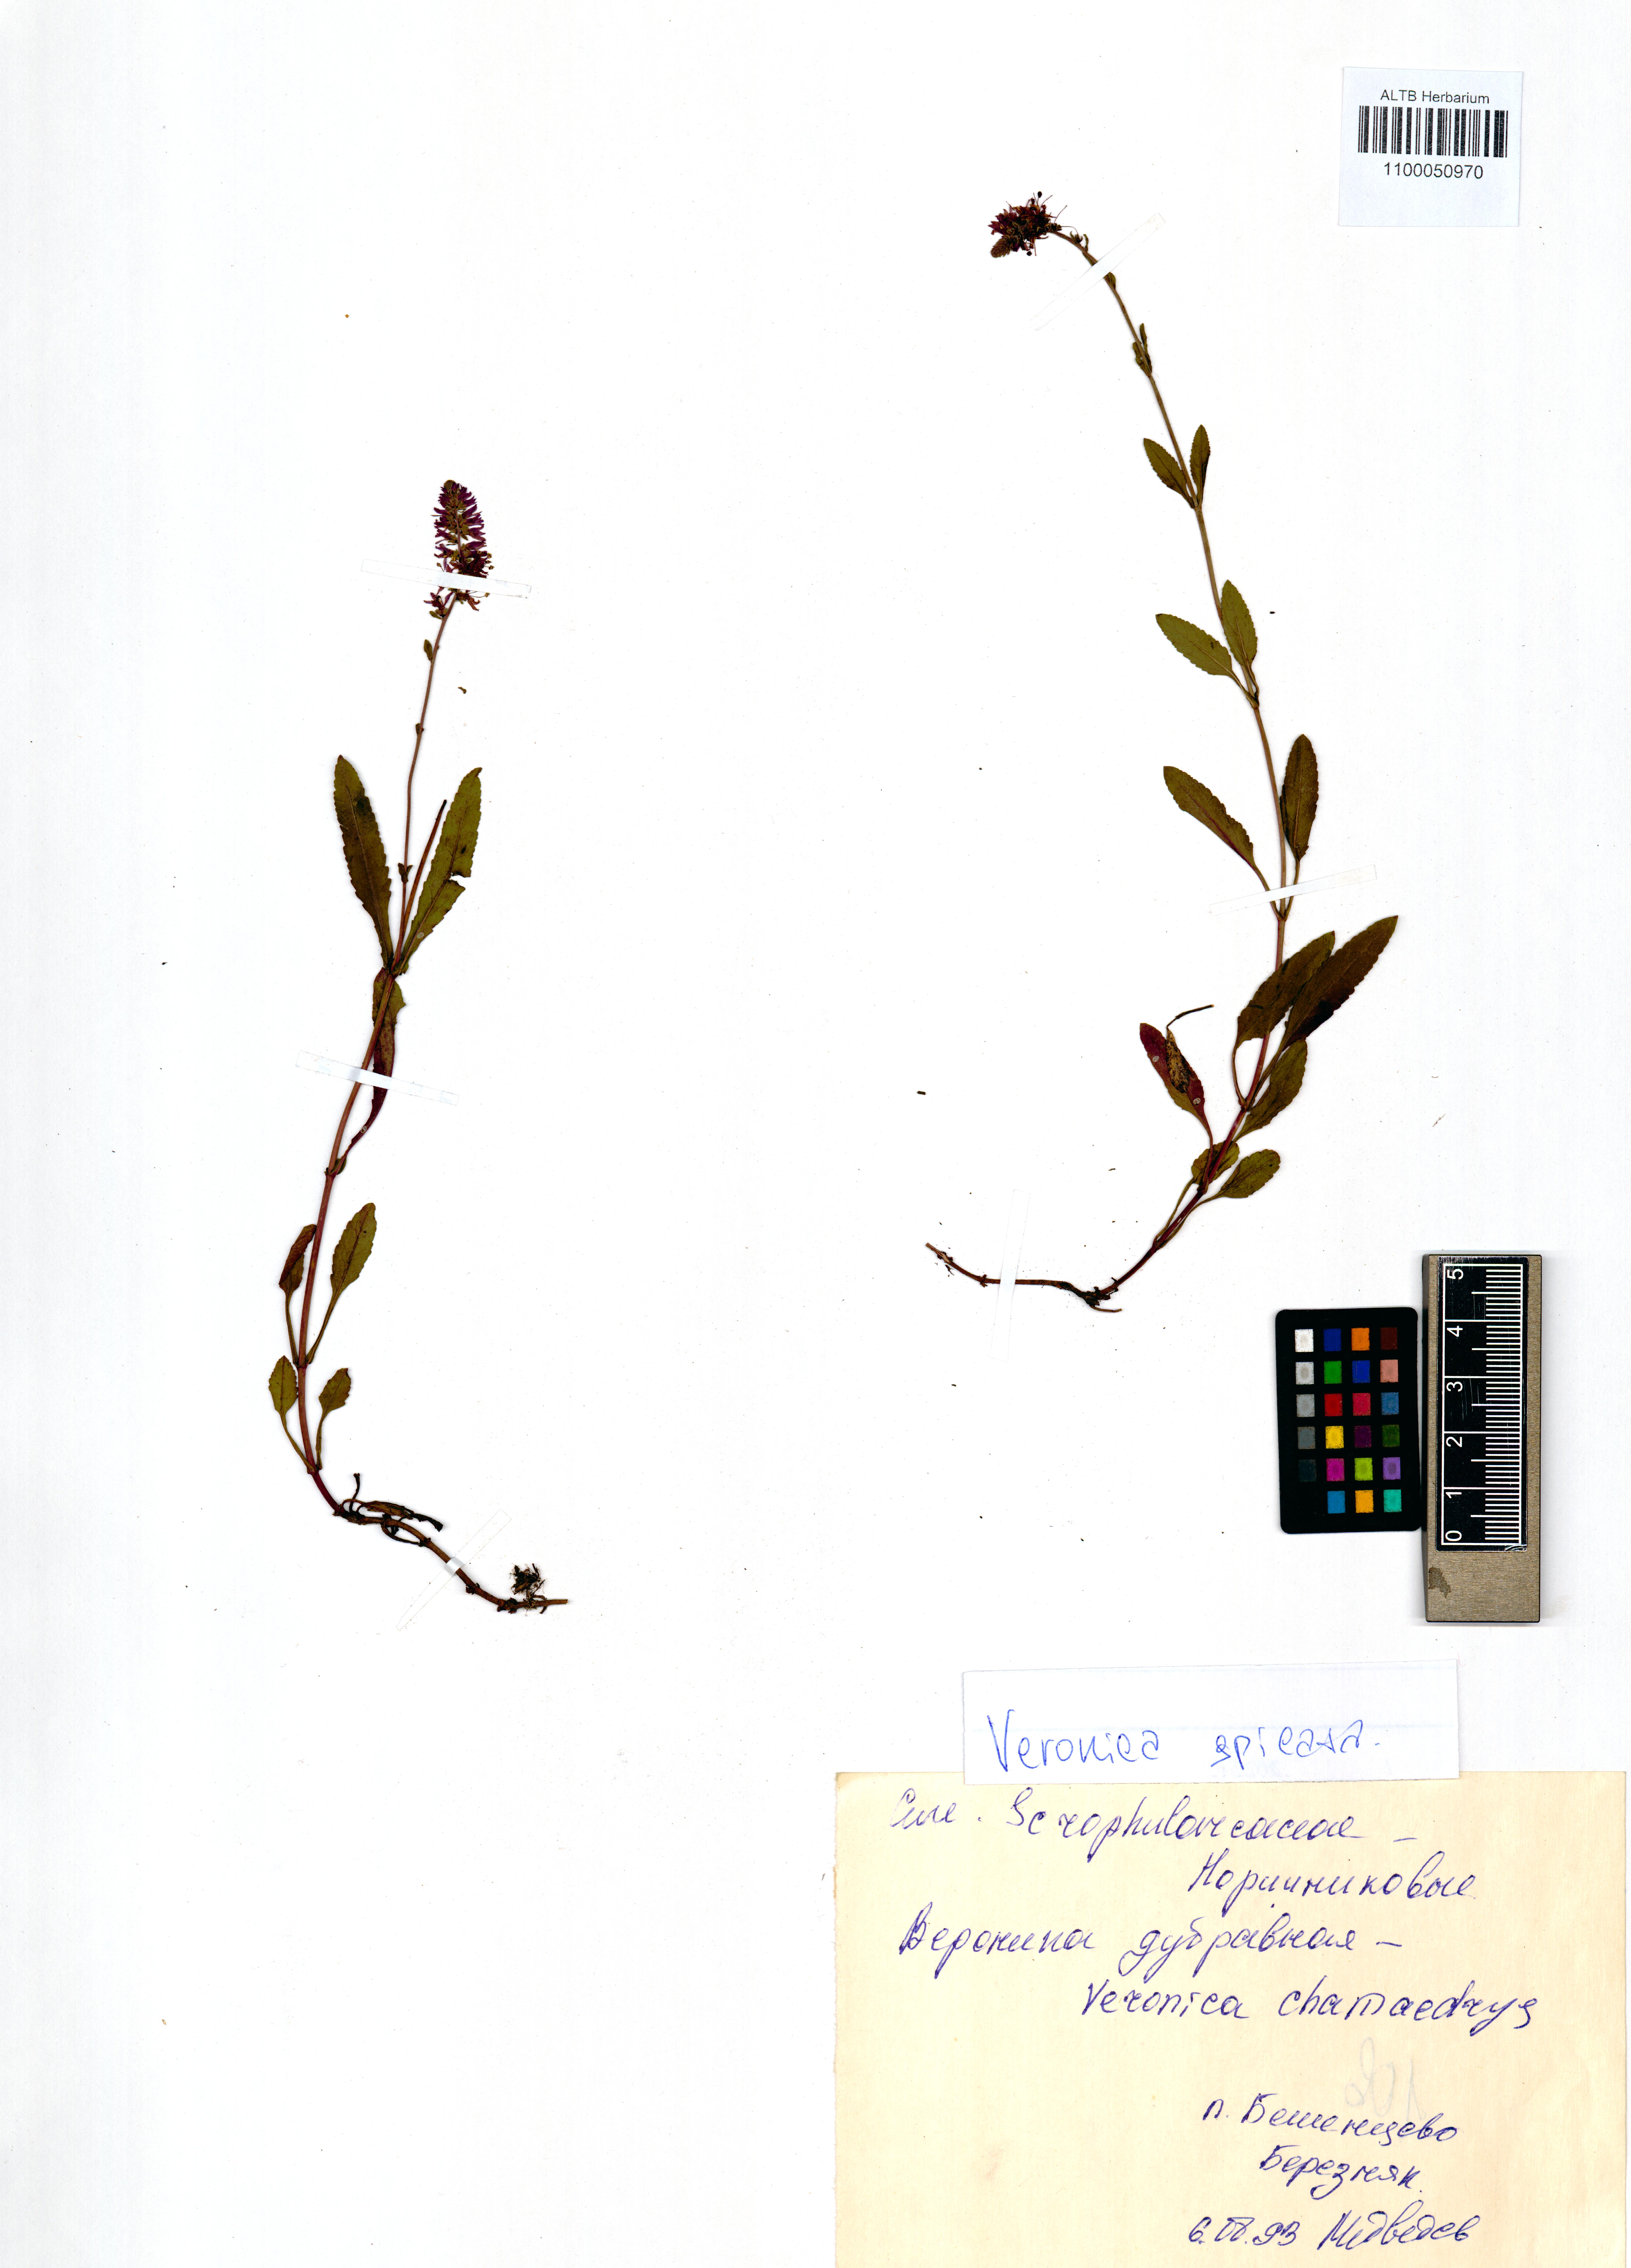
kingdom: Plantae
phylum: Tracheophyta
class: Magnoliopsida
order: Lamiales
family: Plantaginaceae
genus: Veronica
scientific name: Veronica spicata
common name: Spiked speedwell
